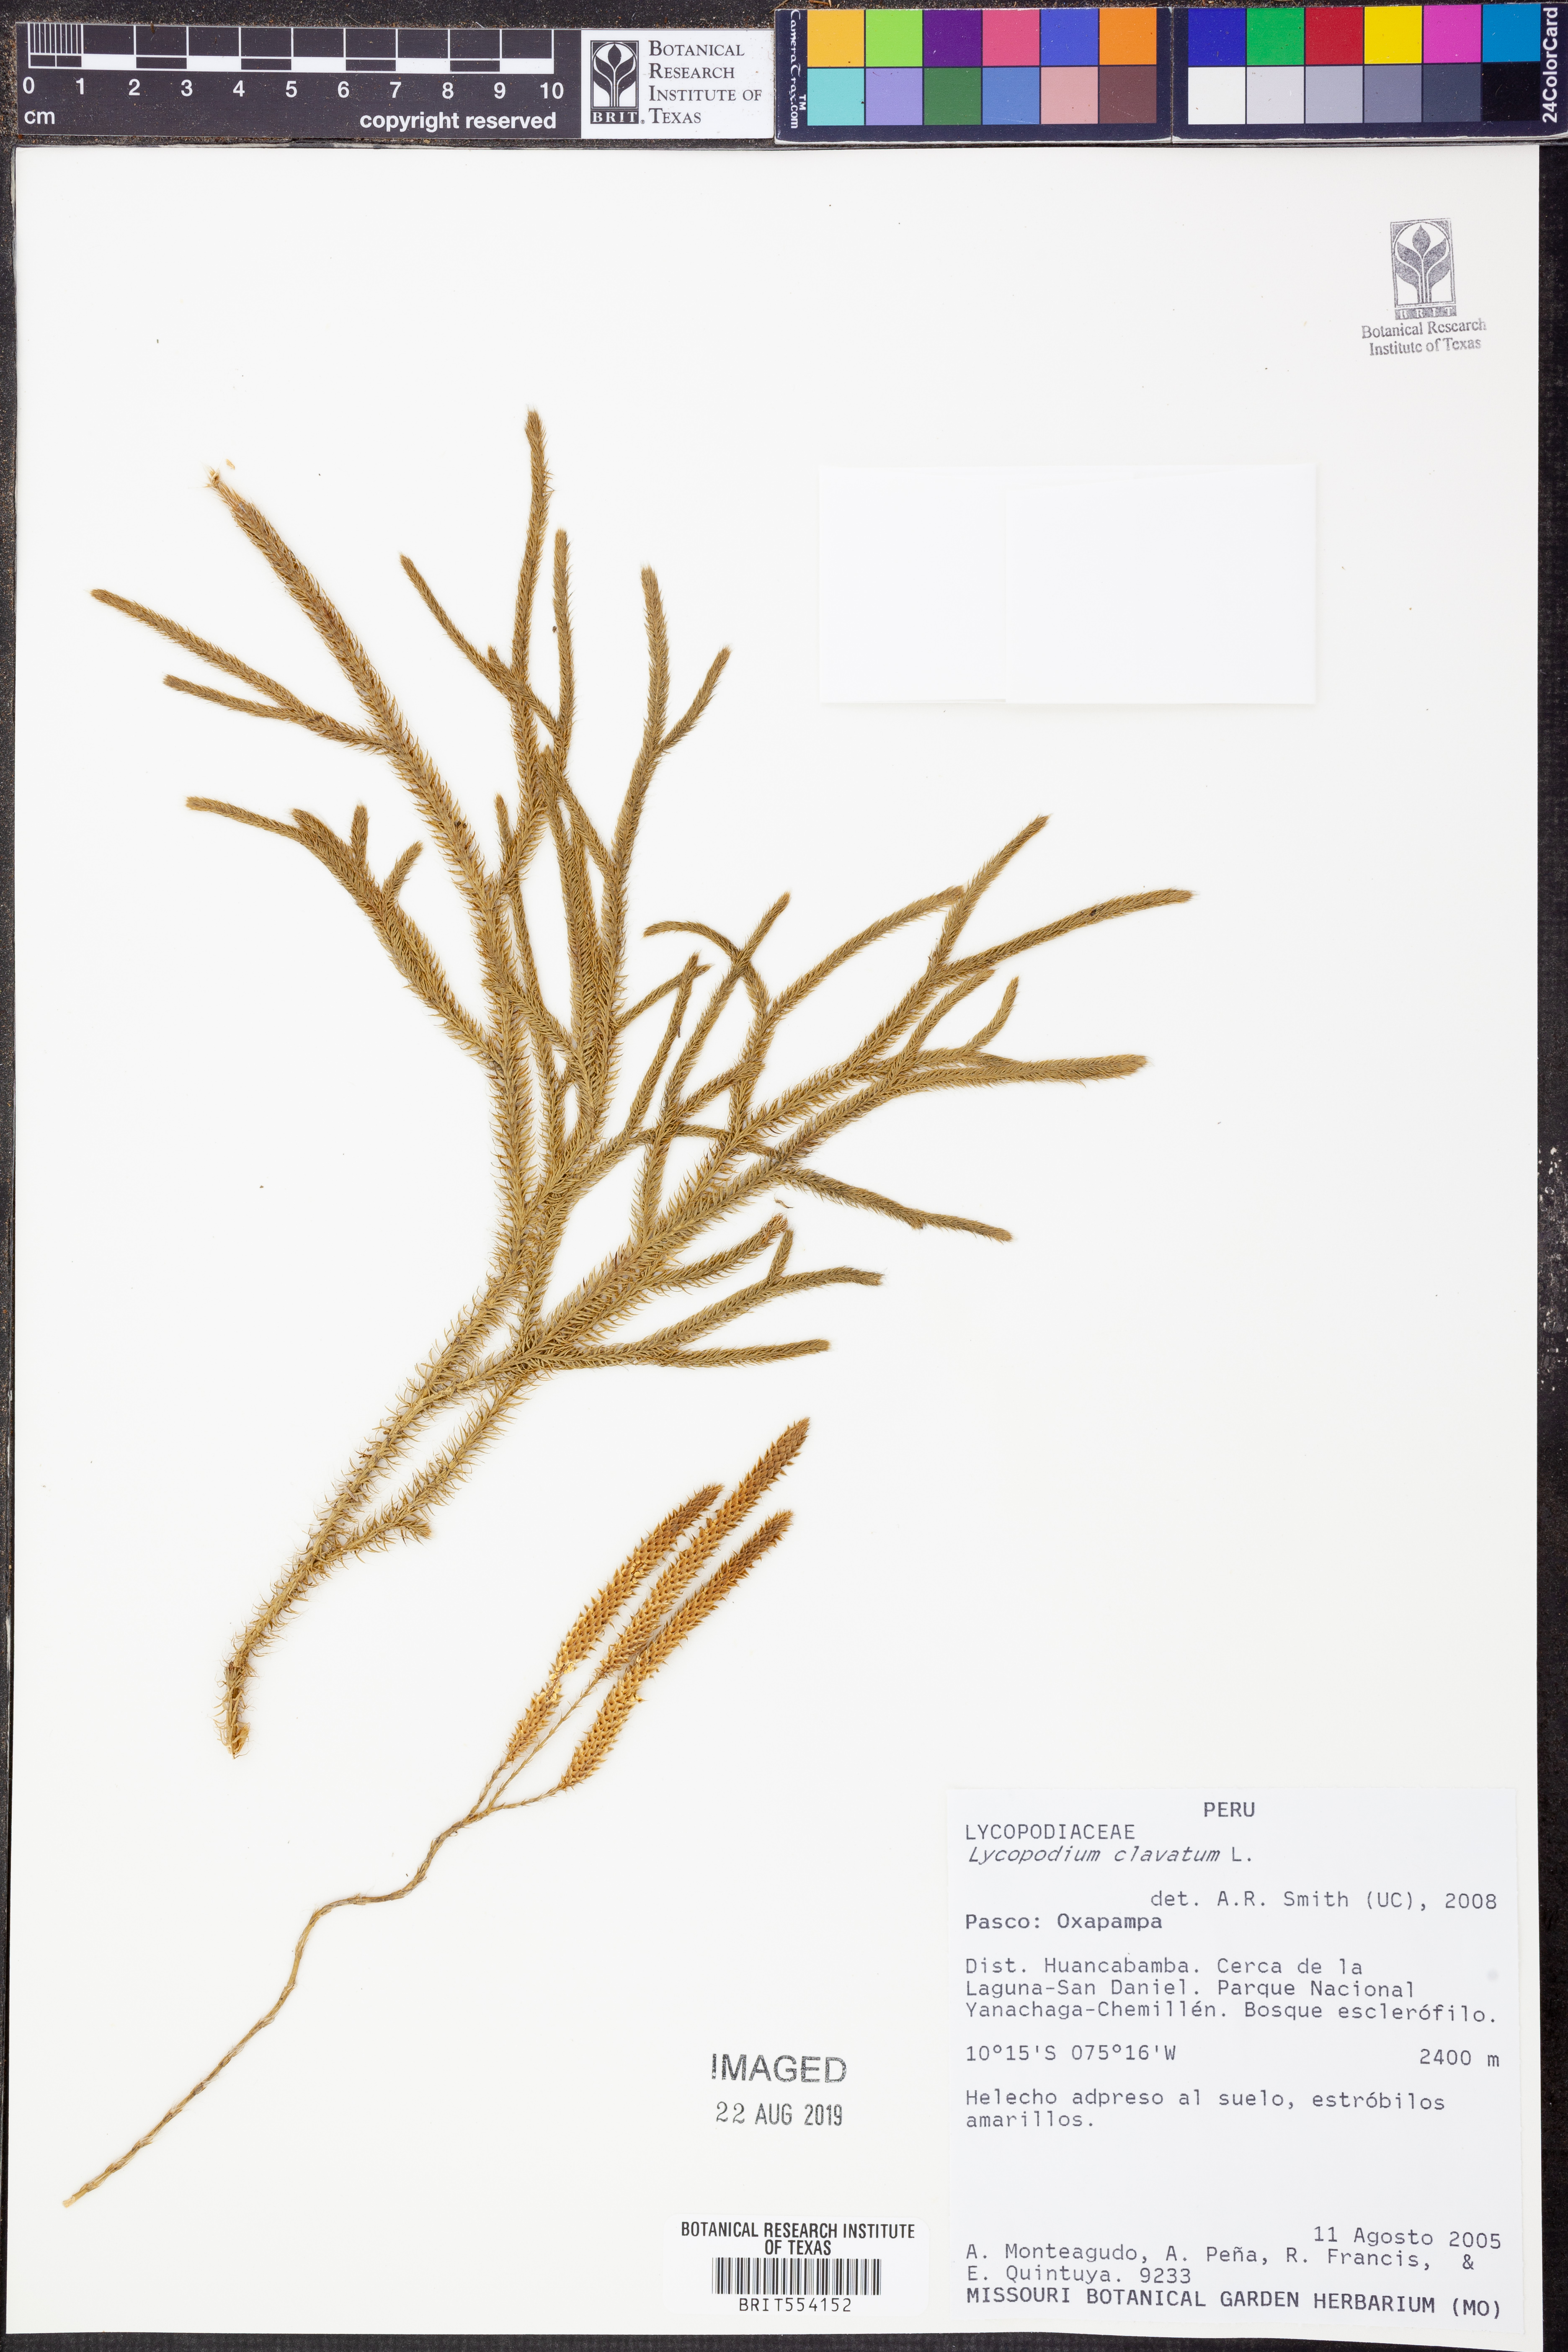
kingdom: Plantae
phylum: Tracheophyta
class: Lycopodiopsida
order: Lycopodiales
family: Lycopodiaceae
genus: Lycopodium
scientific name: Lycopodium clavatum
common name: Stag's-horn clubmoss
